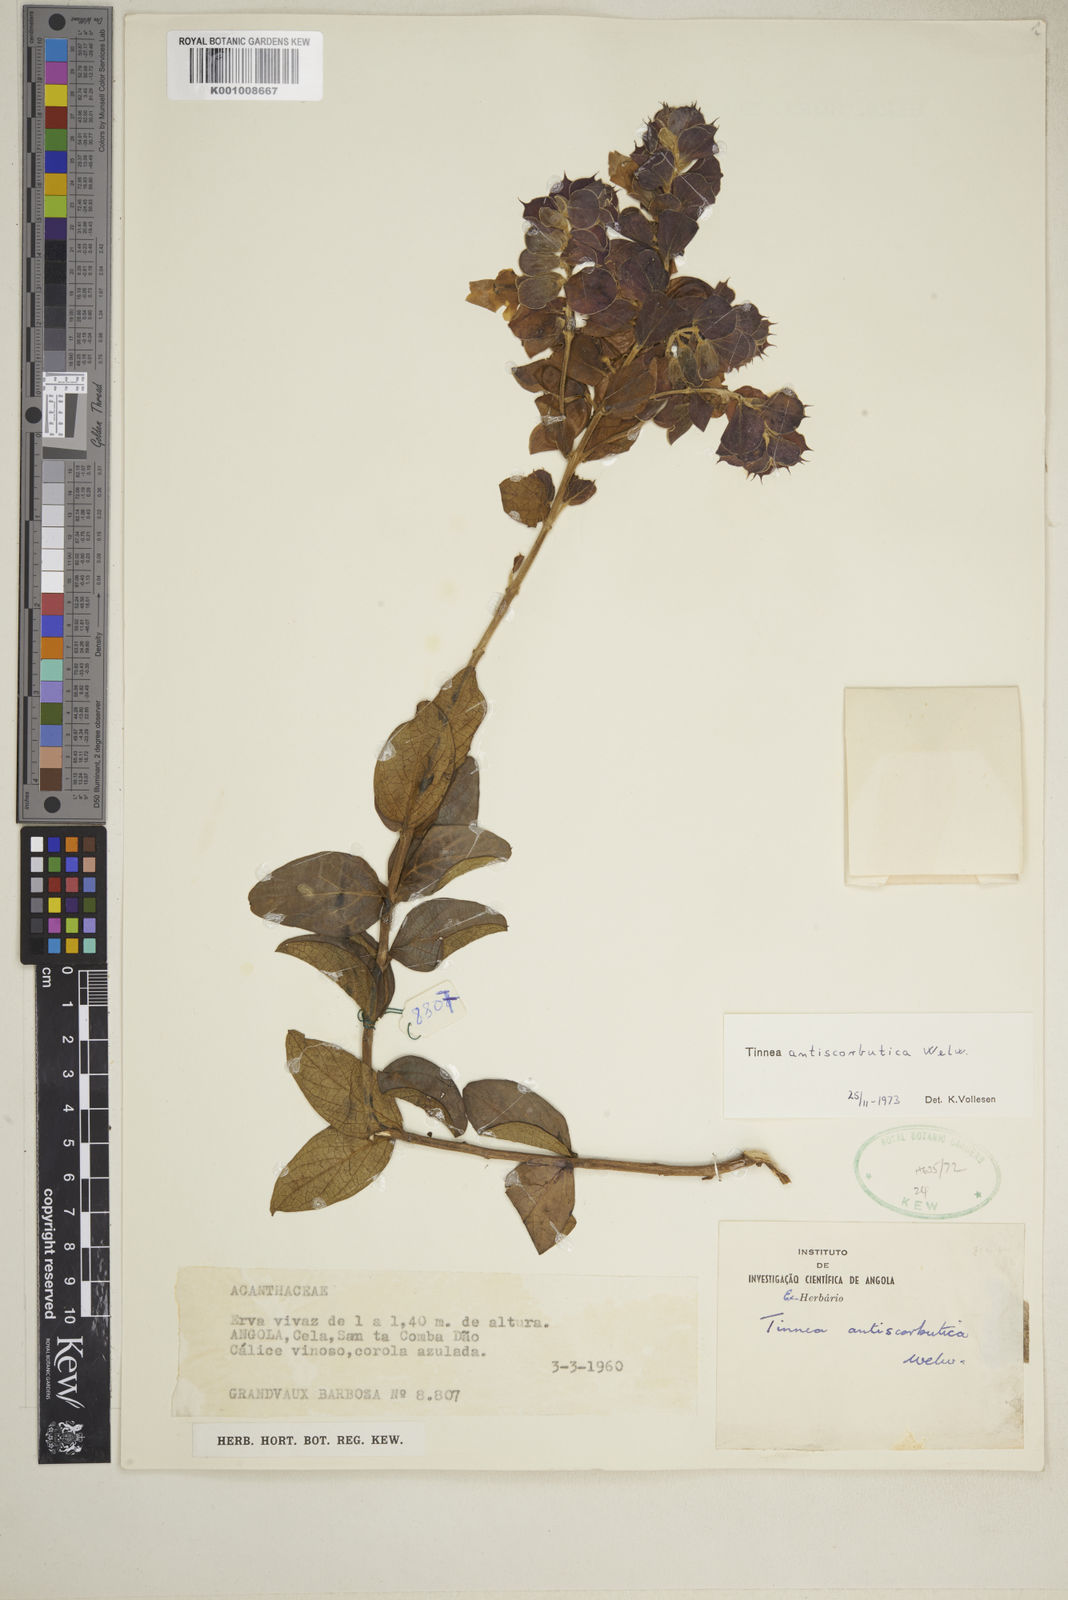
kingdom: Plantae
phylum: Tracheophyta
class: Magnoliopsida
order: Lamiales
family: Lamiaceae
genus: Tinnea
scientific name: Tinnea antiscorbutica
